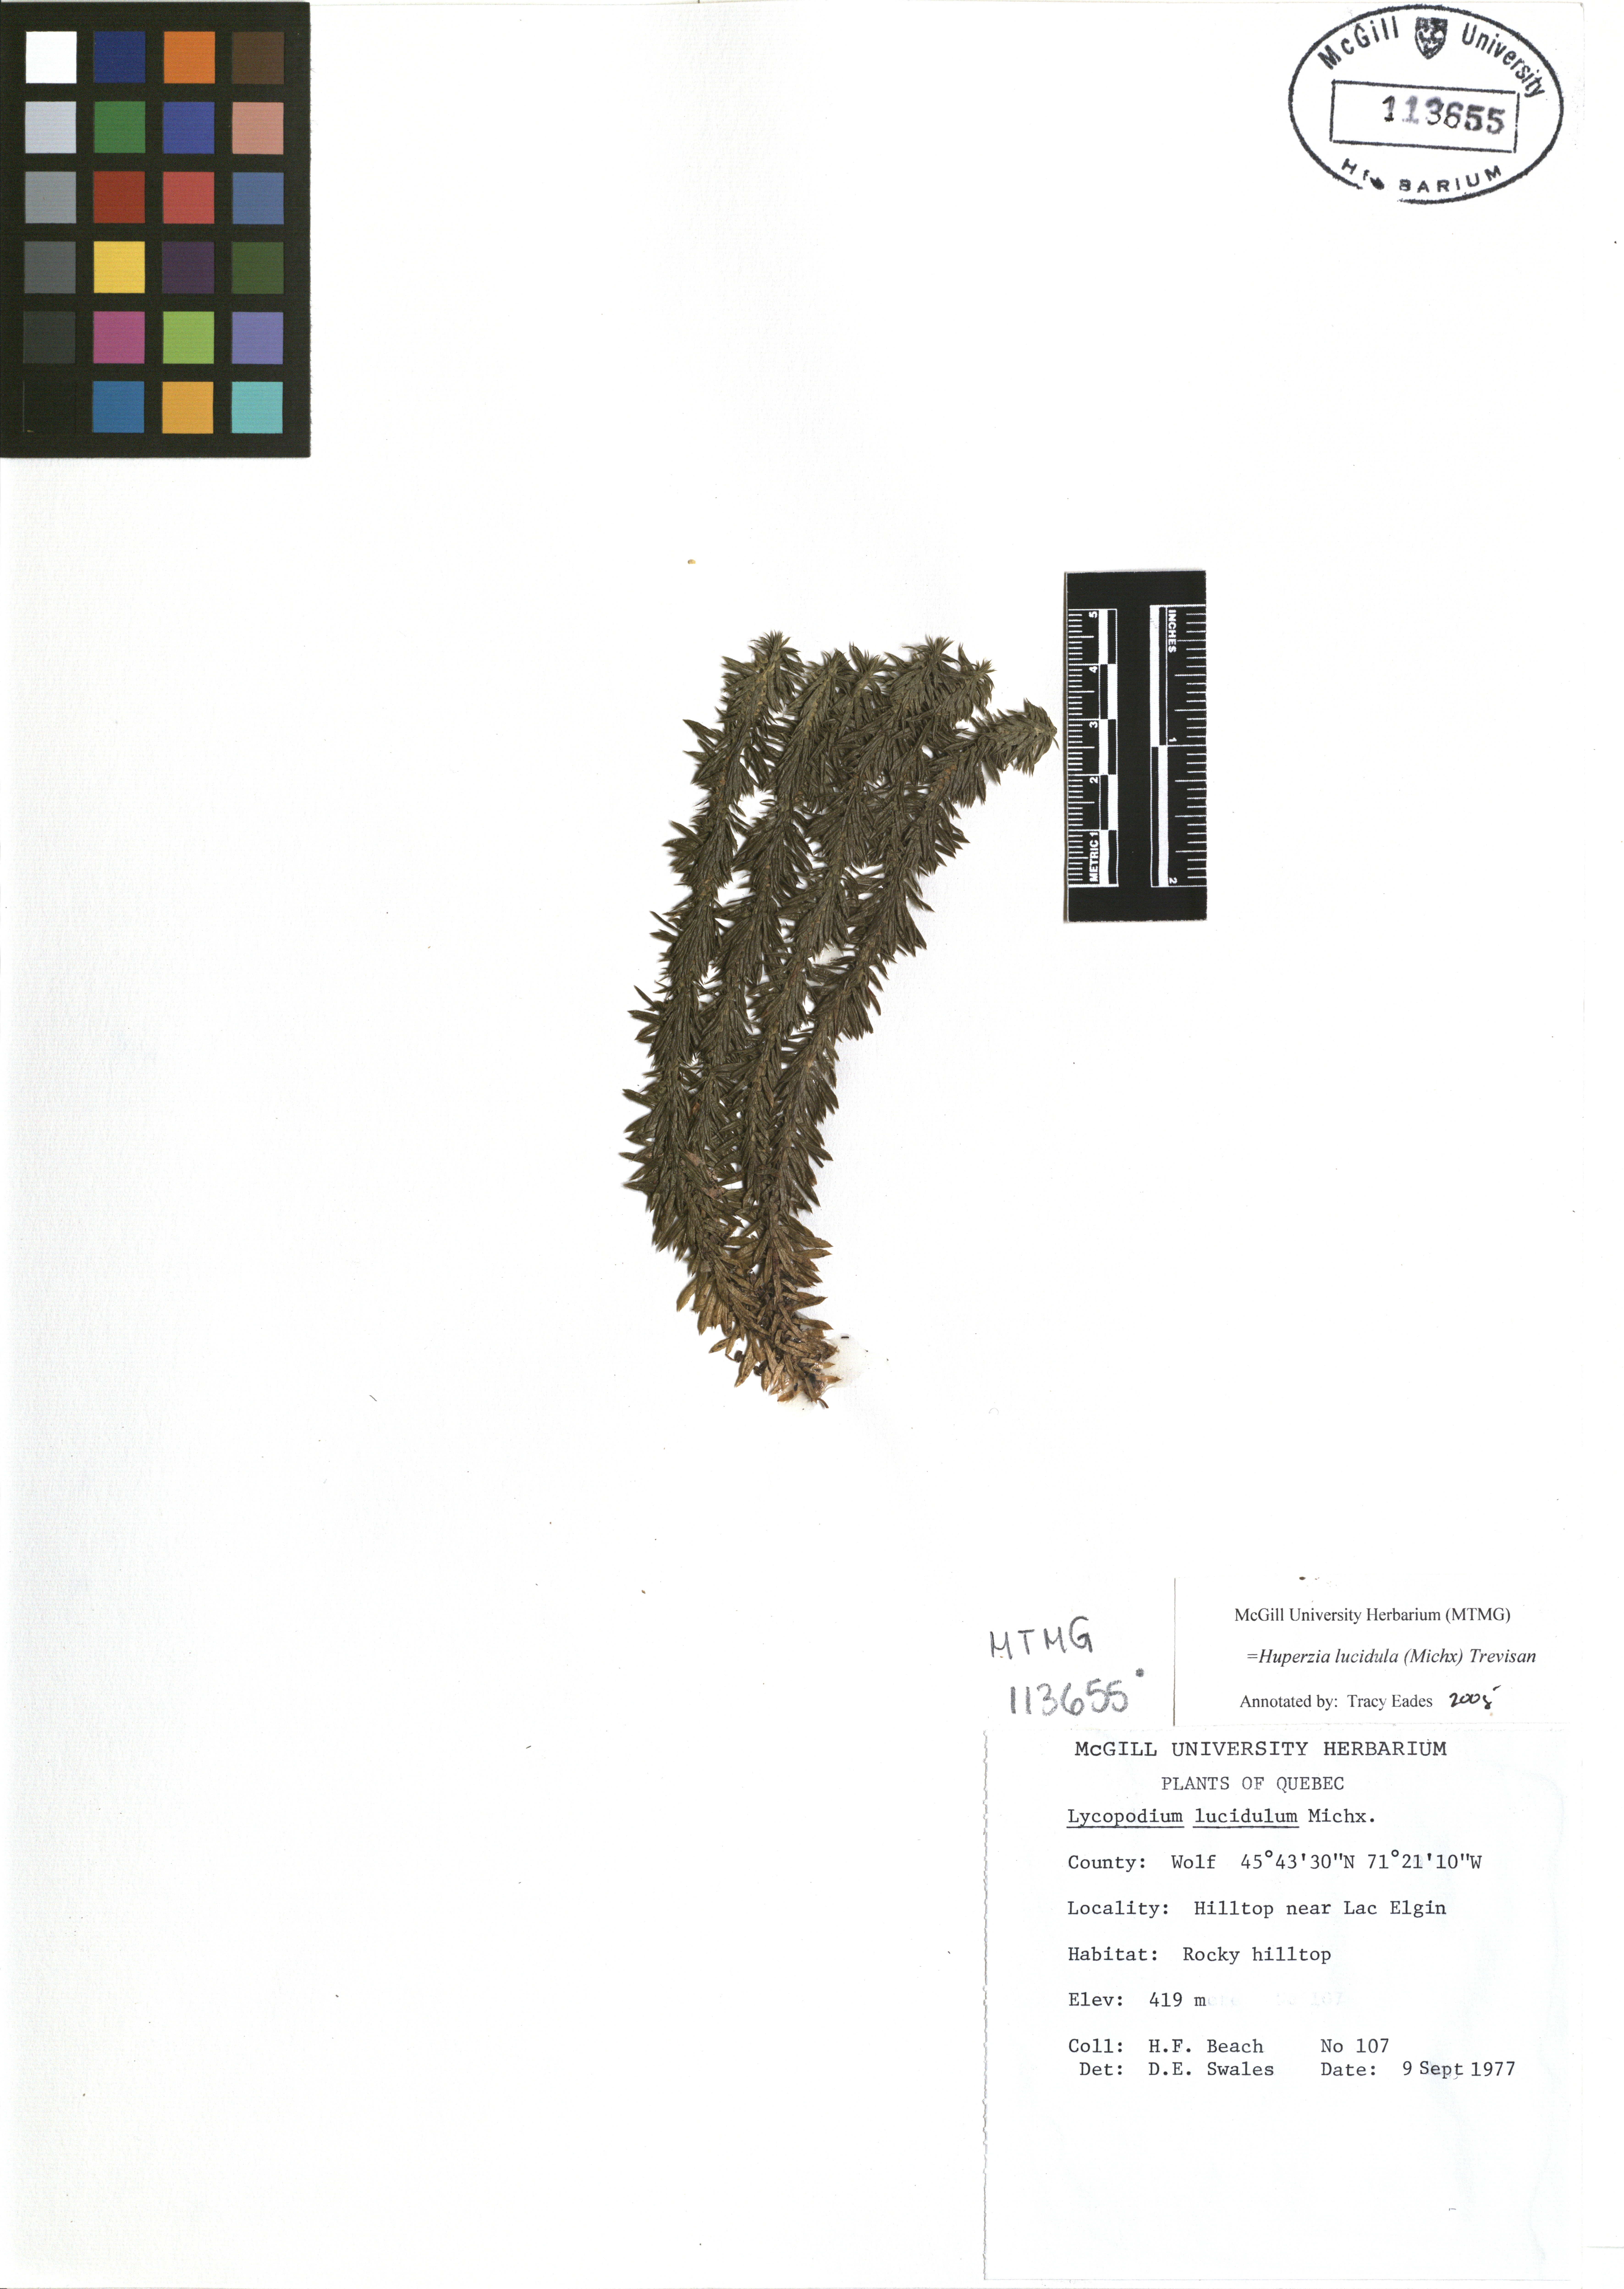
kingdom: Plantae
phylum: Tracheophyta
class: Lycopodiopsida
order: Lycopodiales
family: Lycopodiaceae
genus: Huperzia
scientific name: Huperzia lucidula
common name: Shining clubmoss
